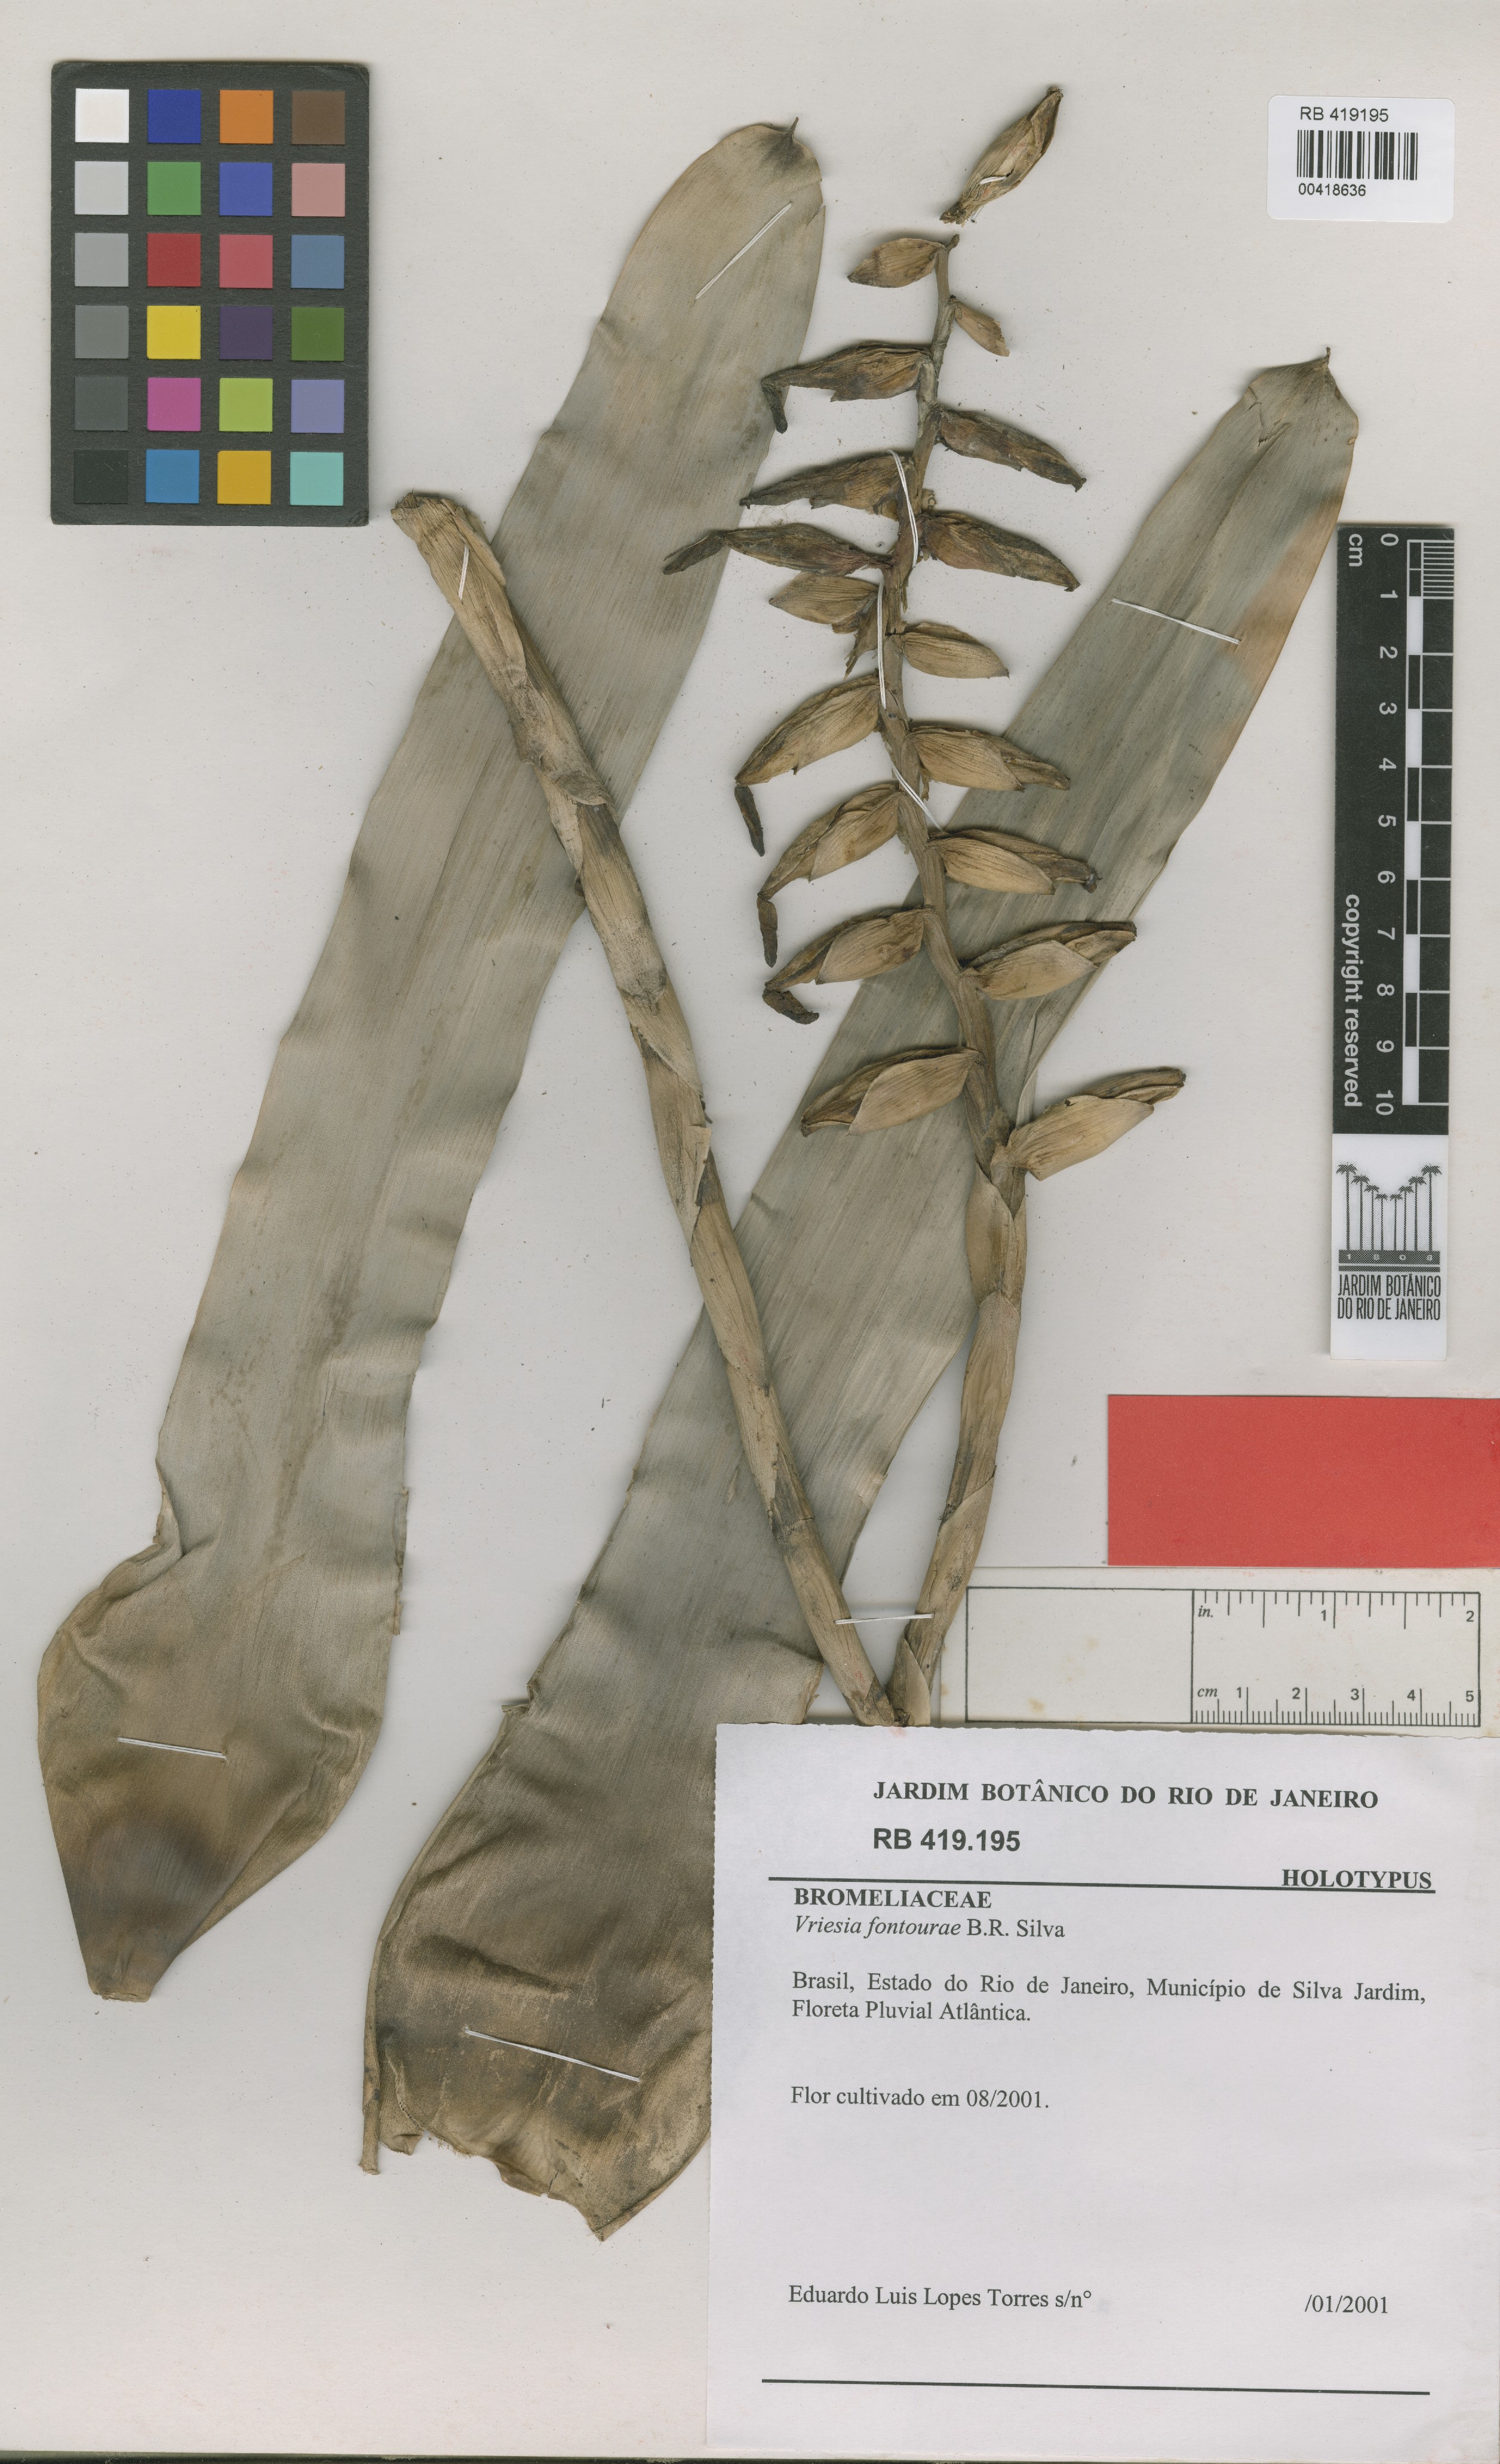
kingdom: Plantae
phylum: Tracheophyta
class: Liliopsida
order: Poales
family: Bromeliaceae
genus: Vriesea
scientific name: Vriesea fontourae
